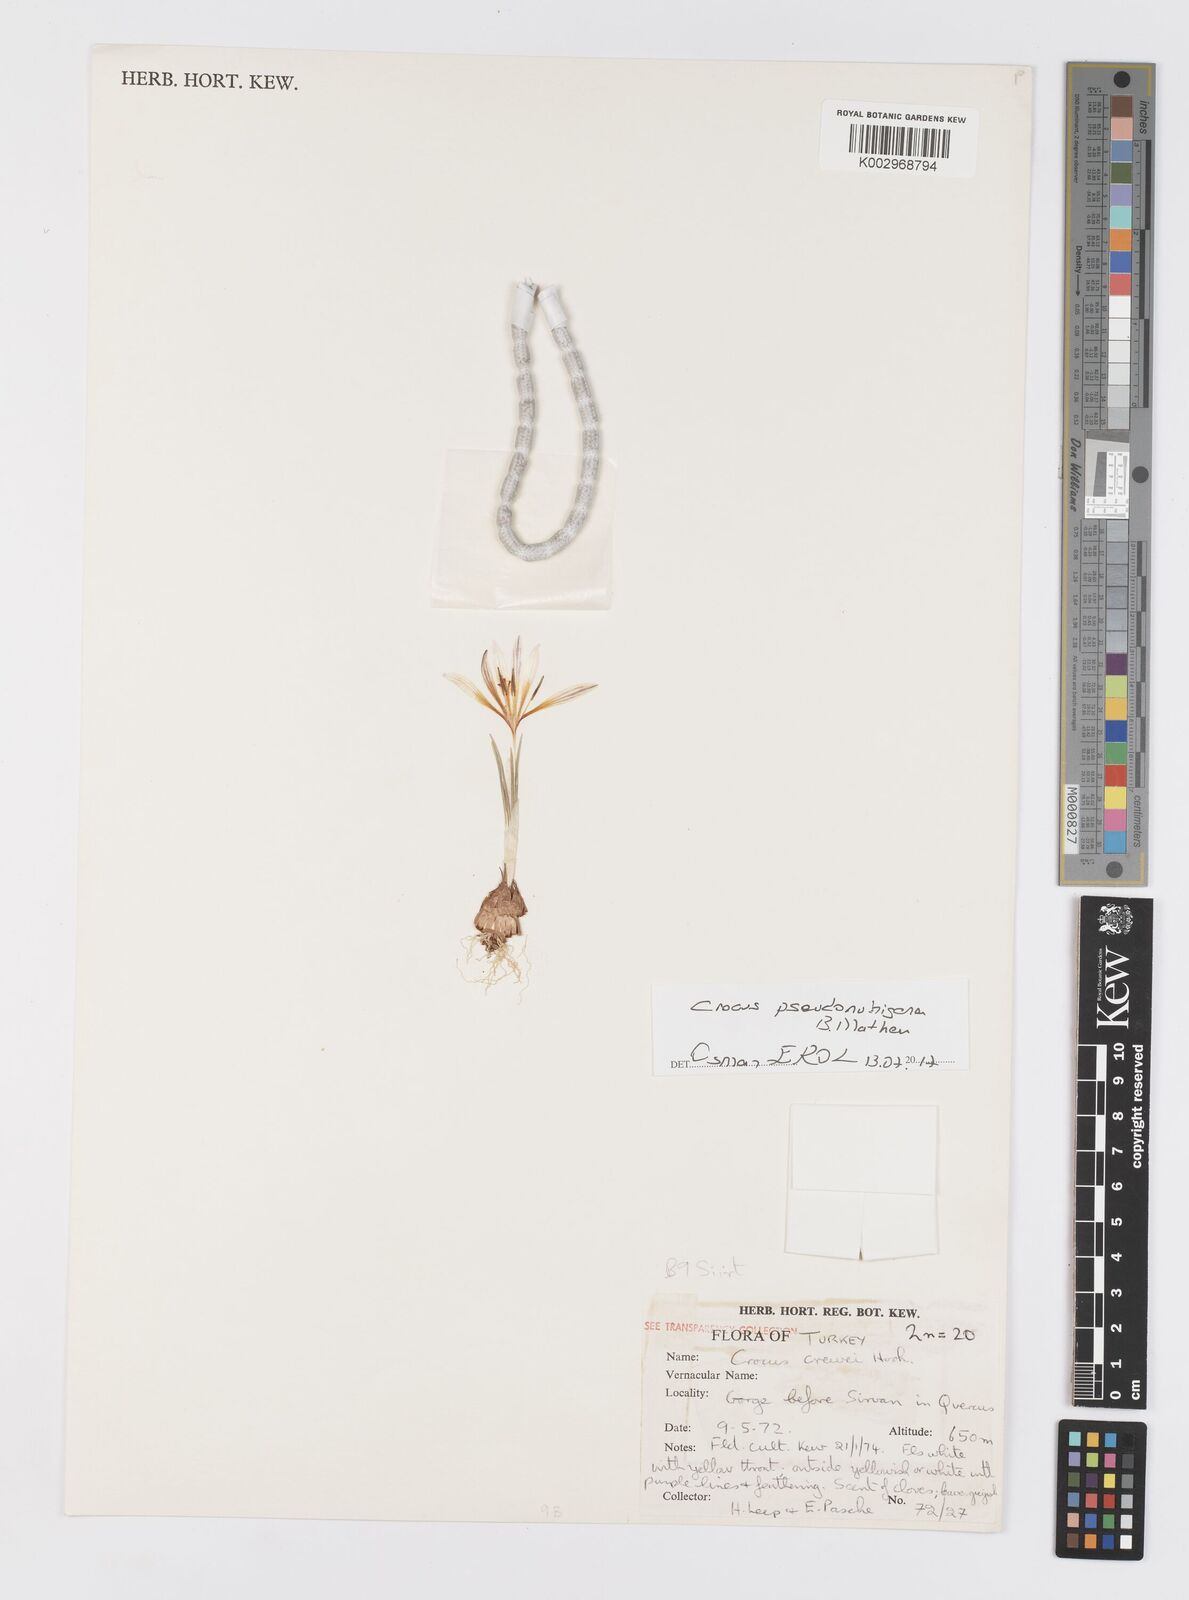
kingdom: Plantae
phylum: Tracheophyta
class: Liliopsida
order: Asparagales
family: Iridaceae
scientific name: Iridaceae
